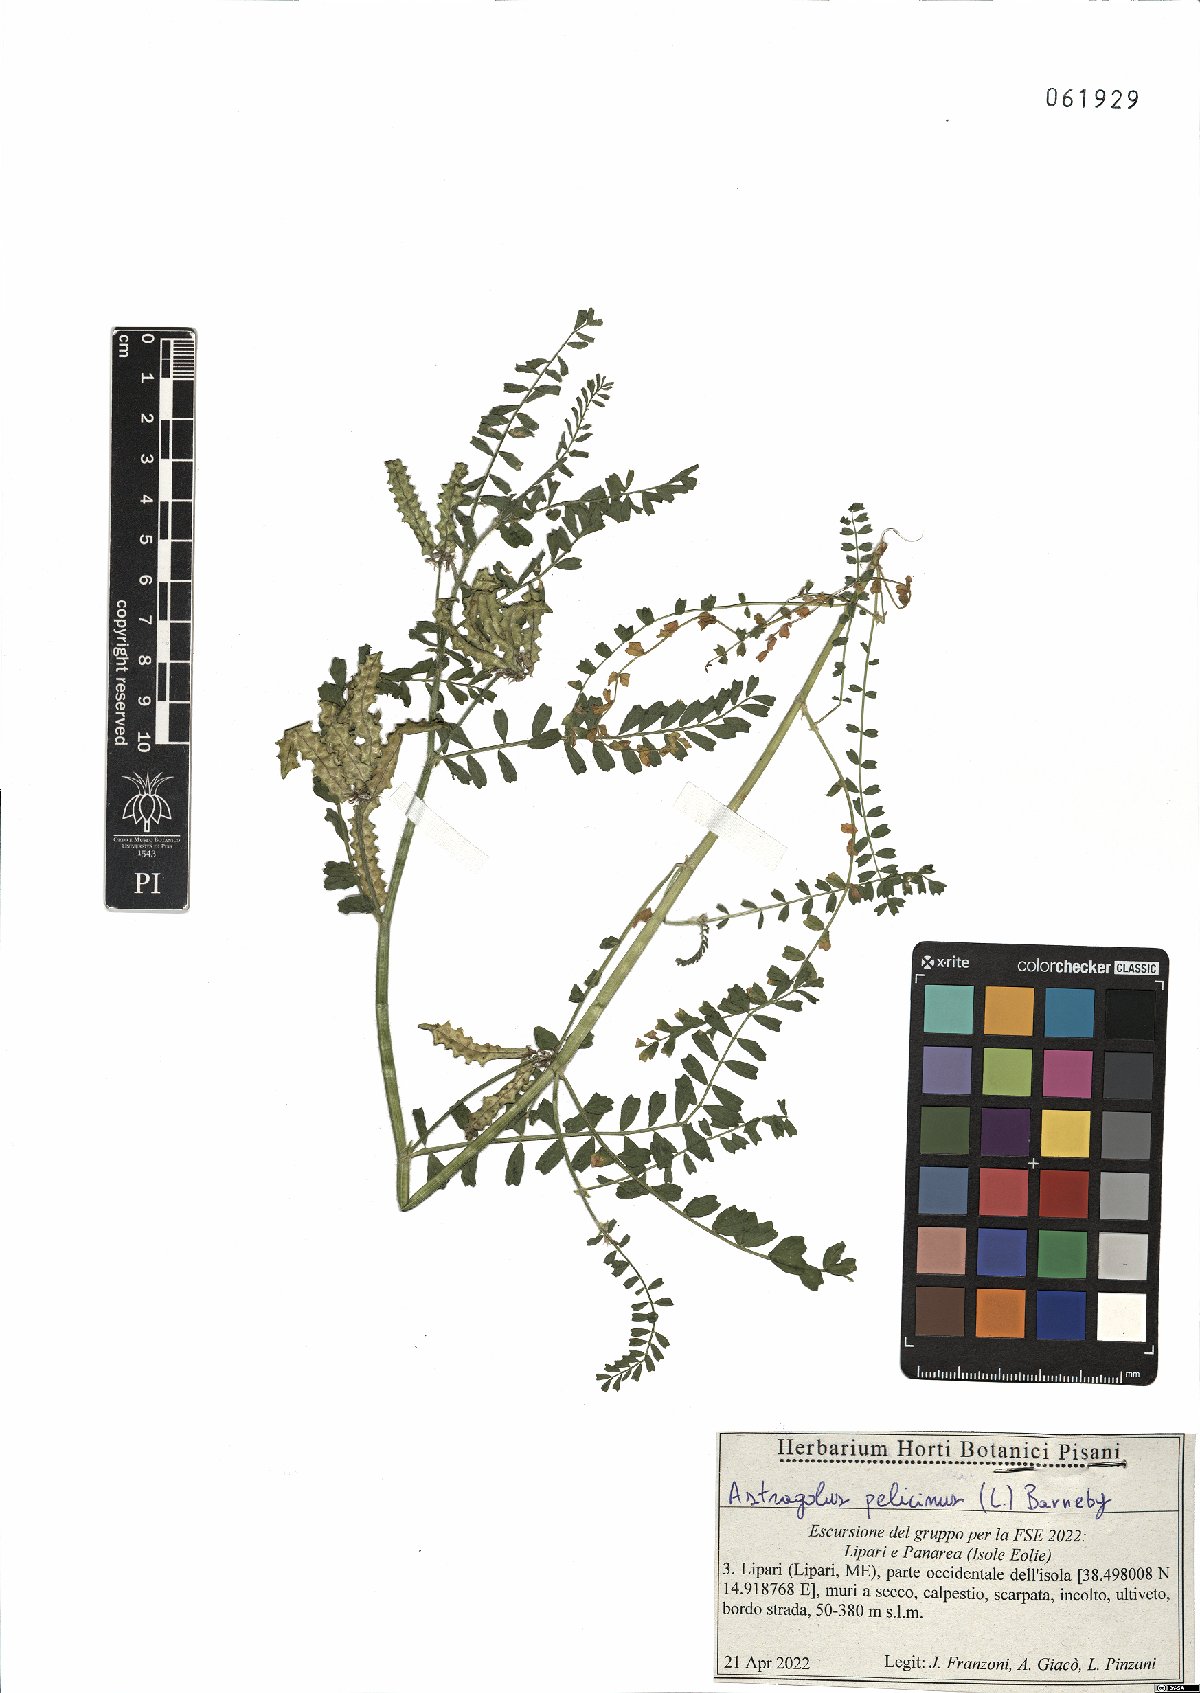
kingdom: Plantae
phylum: Tracheophyta
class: Magnoliopsida
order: Fabales
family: Fabaceae
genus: Biserrula
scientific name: Biserrula pelecinus
